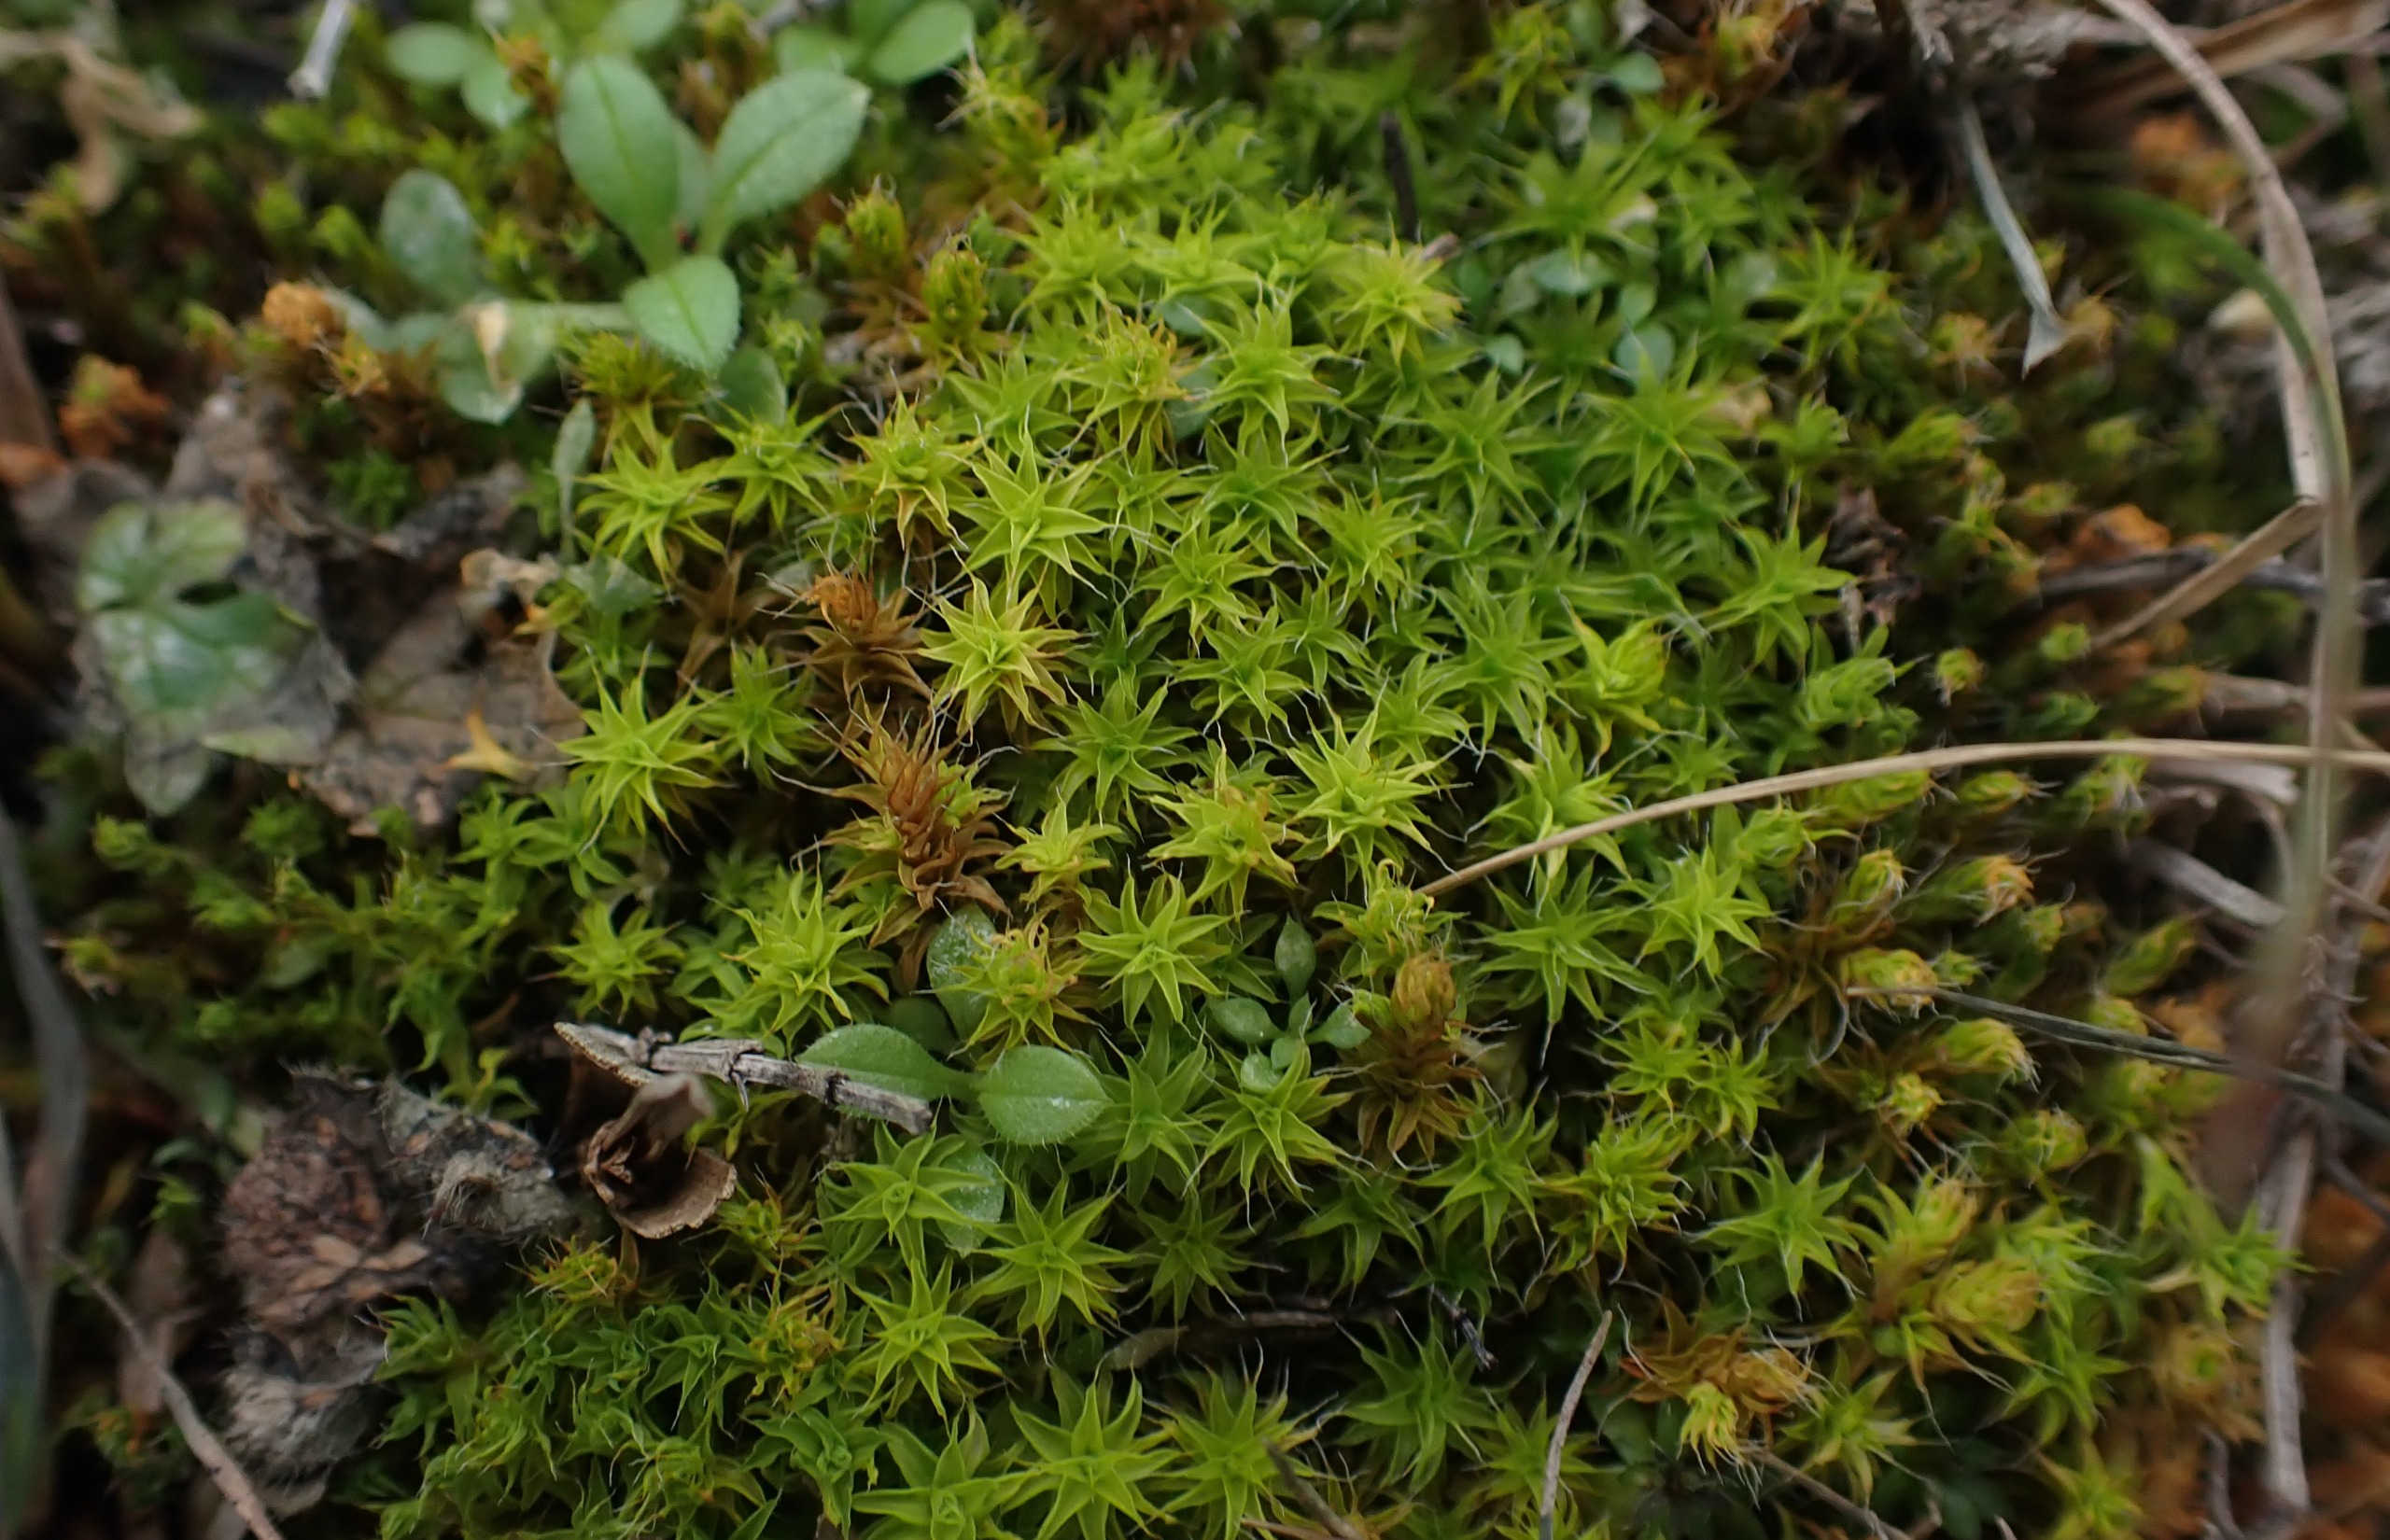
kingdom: Plantae
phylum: Bryophyta
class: Bryopsida
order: Pottiales
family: Pottiaceae
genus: Syntrichia
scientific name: Syntrichia ruralis
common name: Spidsbladet hårstjerne
